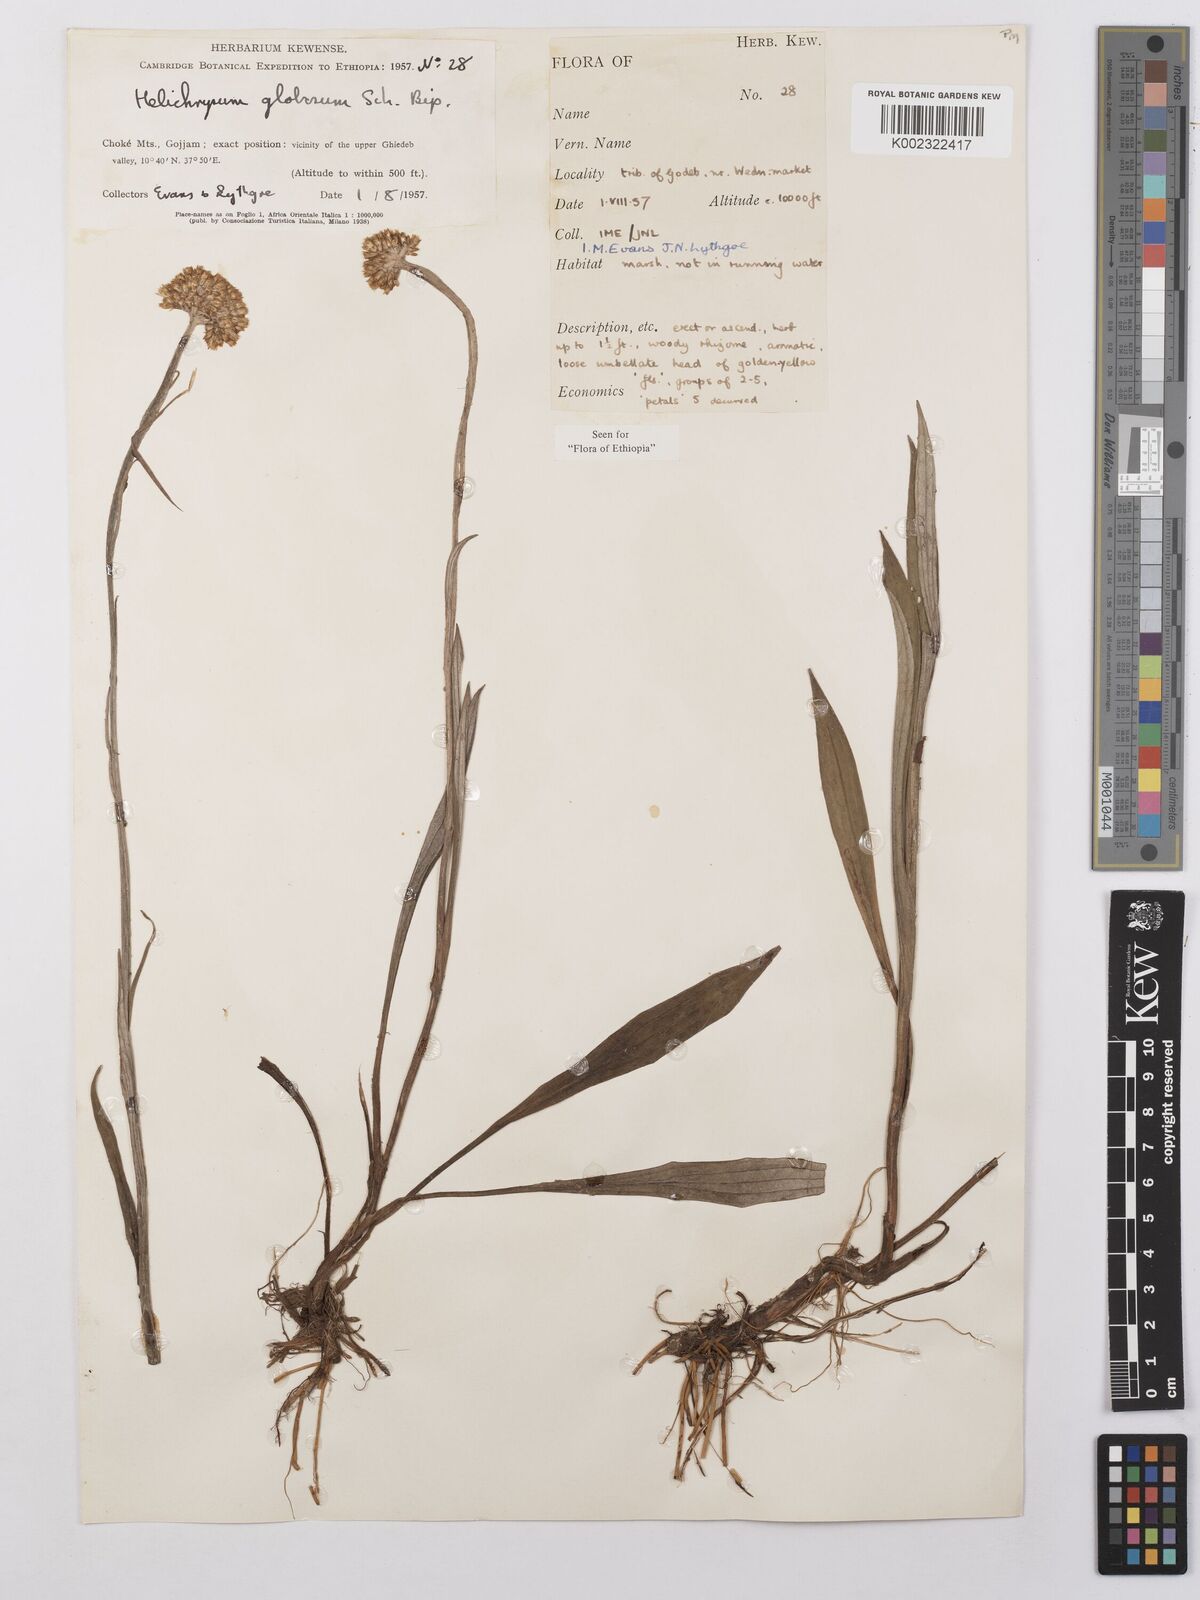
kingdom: Plantae
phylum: Tracheophyta
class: Magnoliopsida
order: Asterales
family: Asteraceae
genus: Helichrysum
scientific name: Helichrysum globosum
